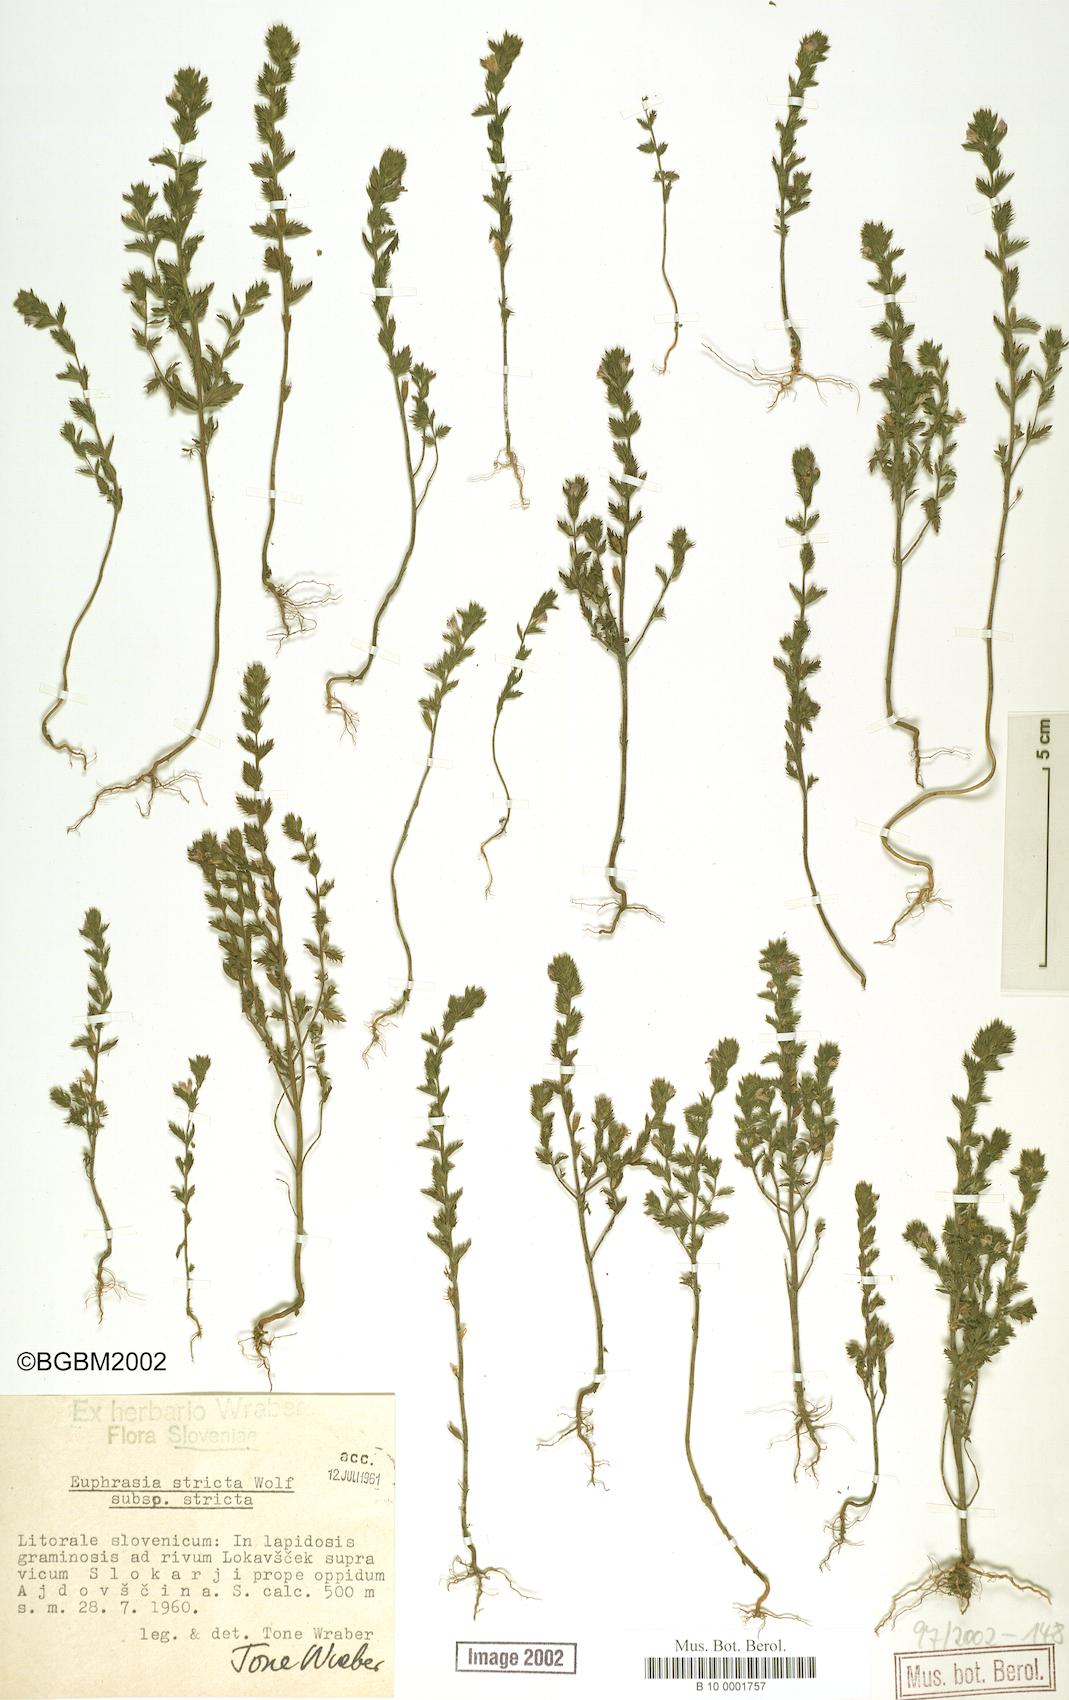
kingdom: Plantae
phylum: Tracheophyta
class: Magnoliopsida
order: Lamiales
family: Orobanchaceae
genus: Euphrasia
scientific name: Euphrasia stricta
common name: Drug eyebright
